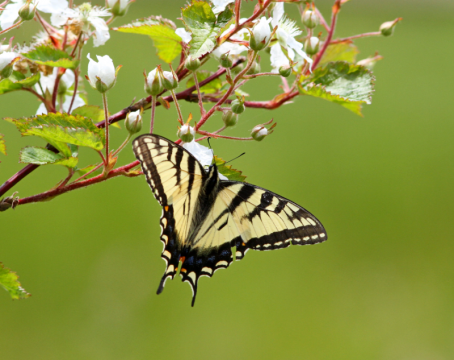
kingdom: Animalia
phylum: Arthropoda
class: Insecta
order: Lepidoptera
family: Papilionidae
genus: Pterourus
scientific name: Pterourus canadensis
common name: Canadian Tiger Swallowtail
